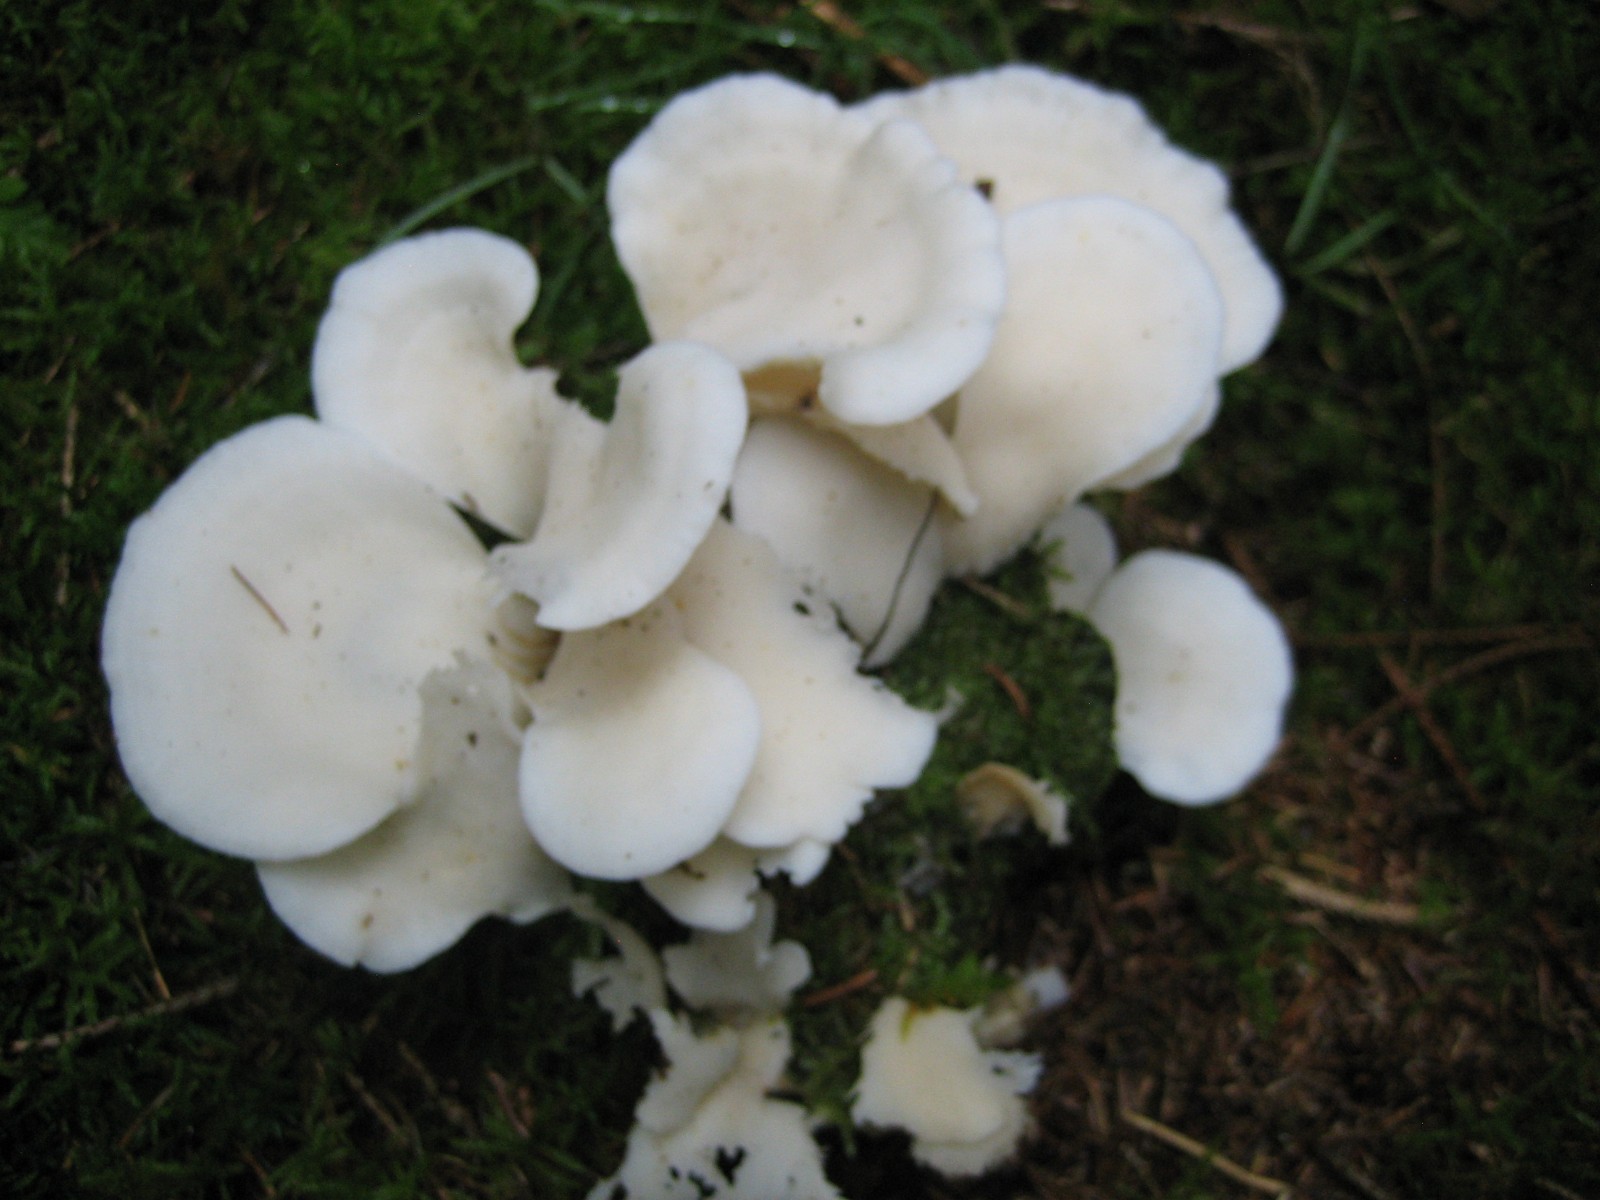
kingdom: Fungi
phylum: Basidiomycota
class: Agaricomycetes
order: Agaricales
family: Marasmiaceae
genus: Pleurocybella
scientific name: Pleurocybella porrigens
